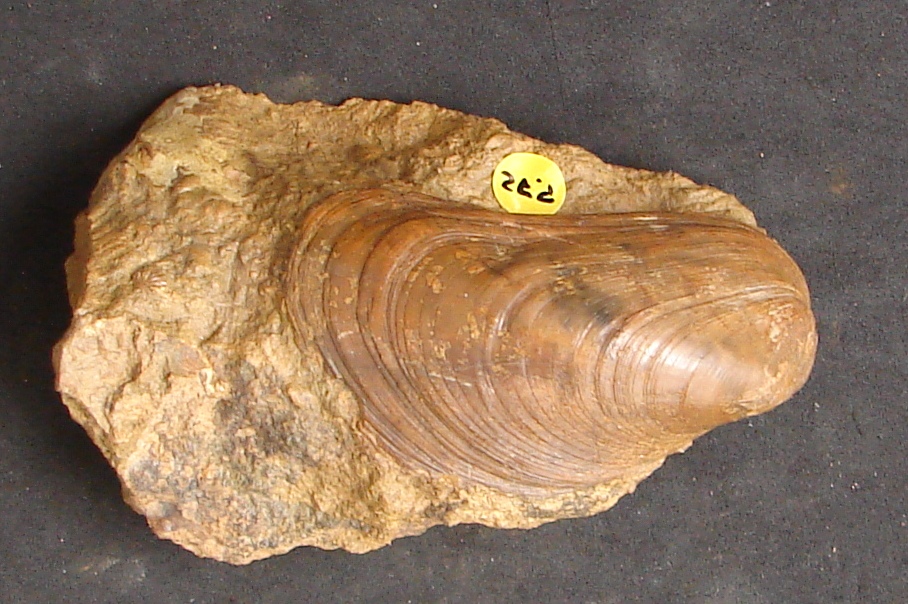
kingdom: Animalia
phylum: Mollusca
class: Bivalvia
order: Mytilida
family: Mytilidae
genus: Modiolus
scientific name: Modiolus bipartitus
